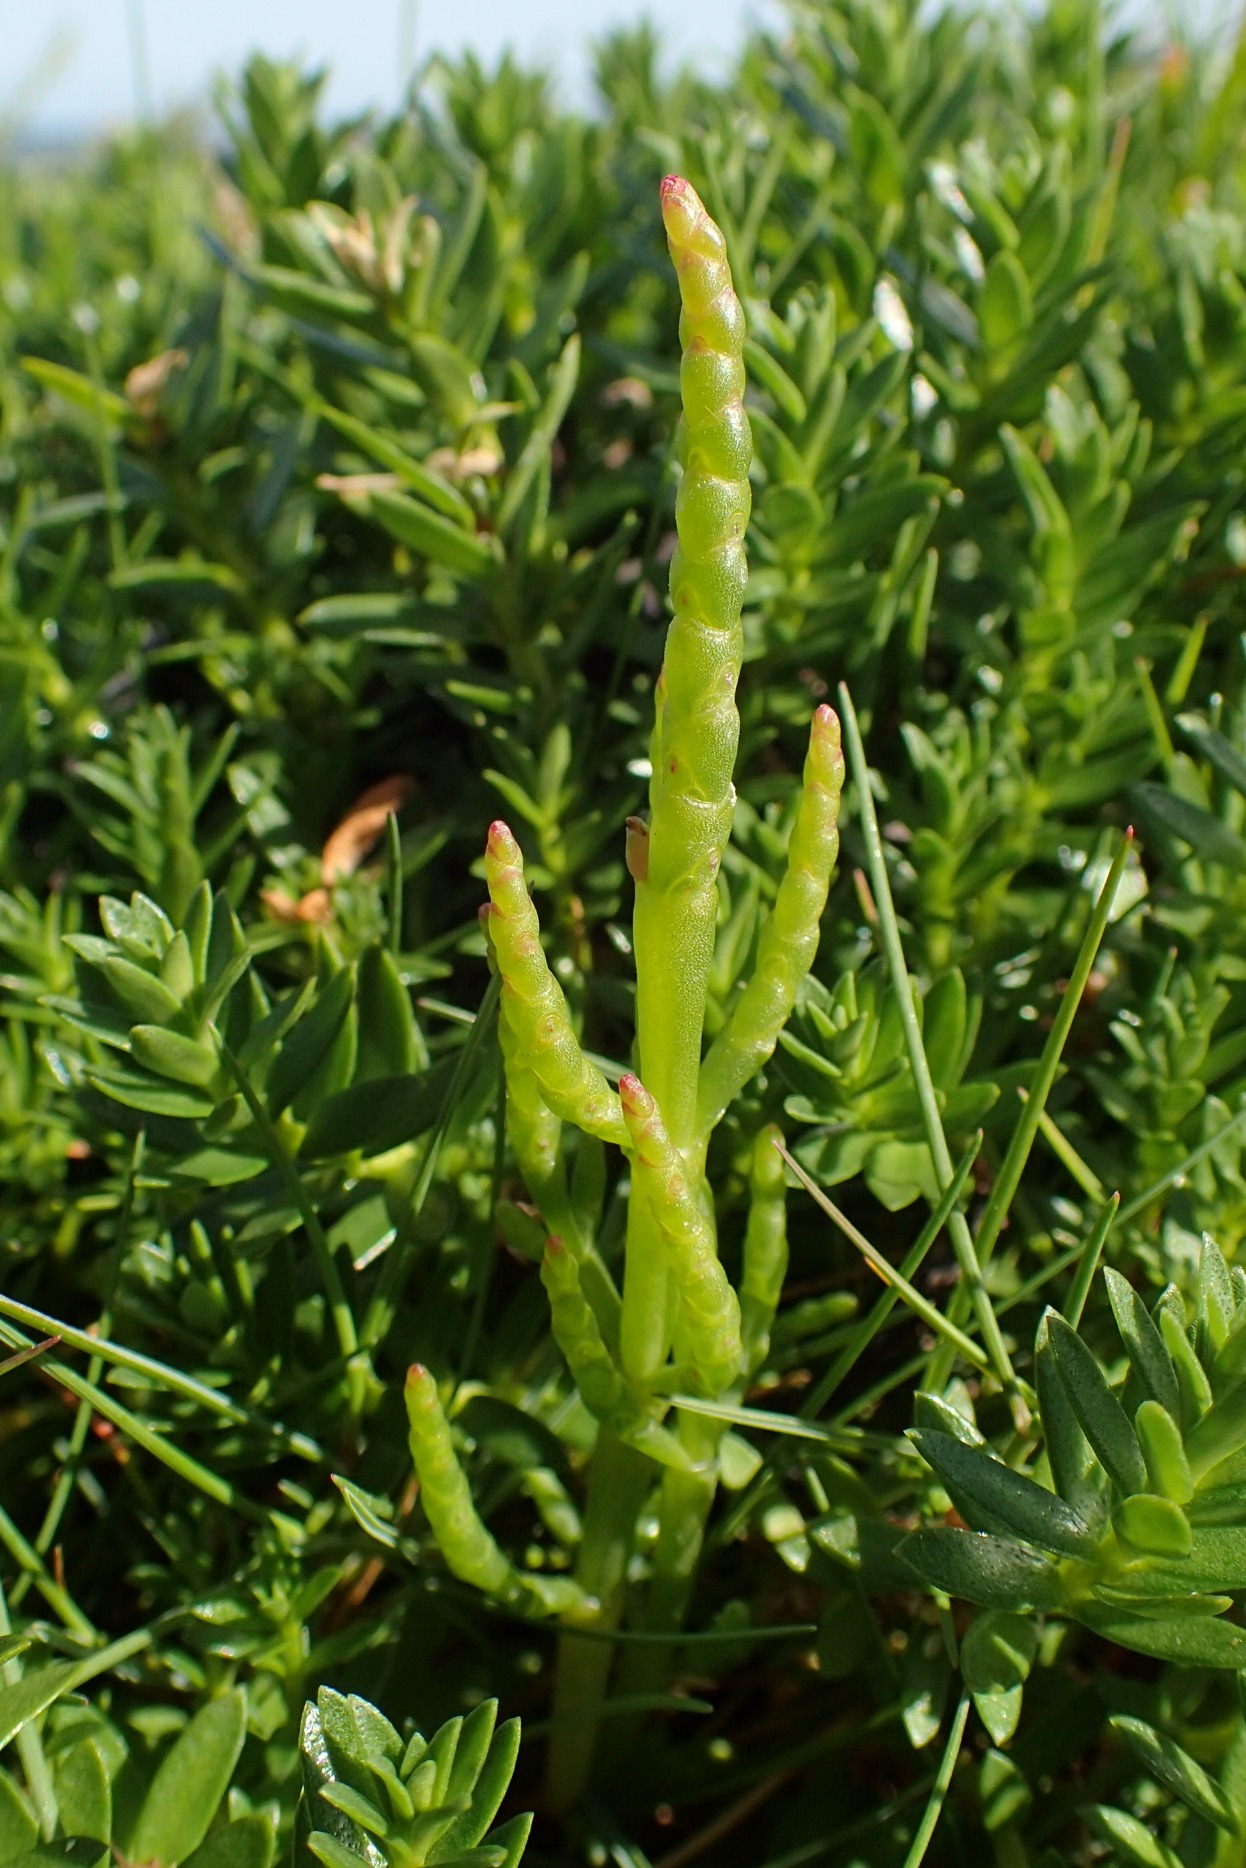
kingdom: Plantae
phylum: Tracheophyta
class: Magnoliopsida
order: Caryophyllales
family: Amaranthaceae
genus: Salicornia
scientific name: Salicornia europaea
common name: Almindelig salturt
